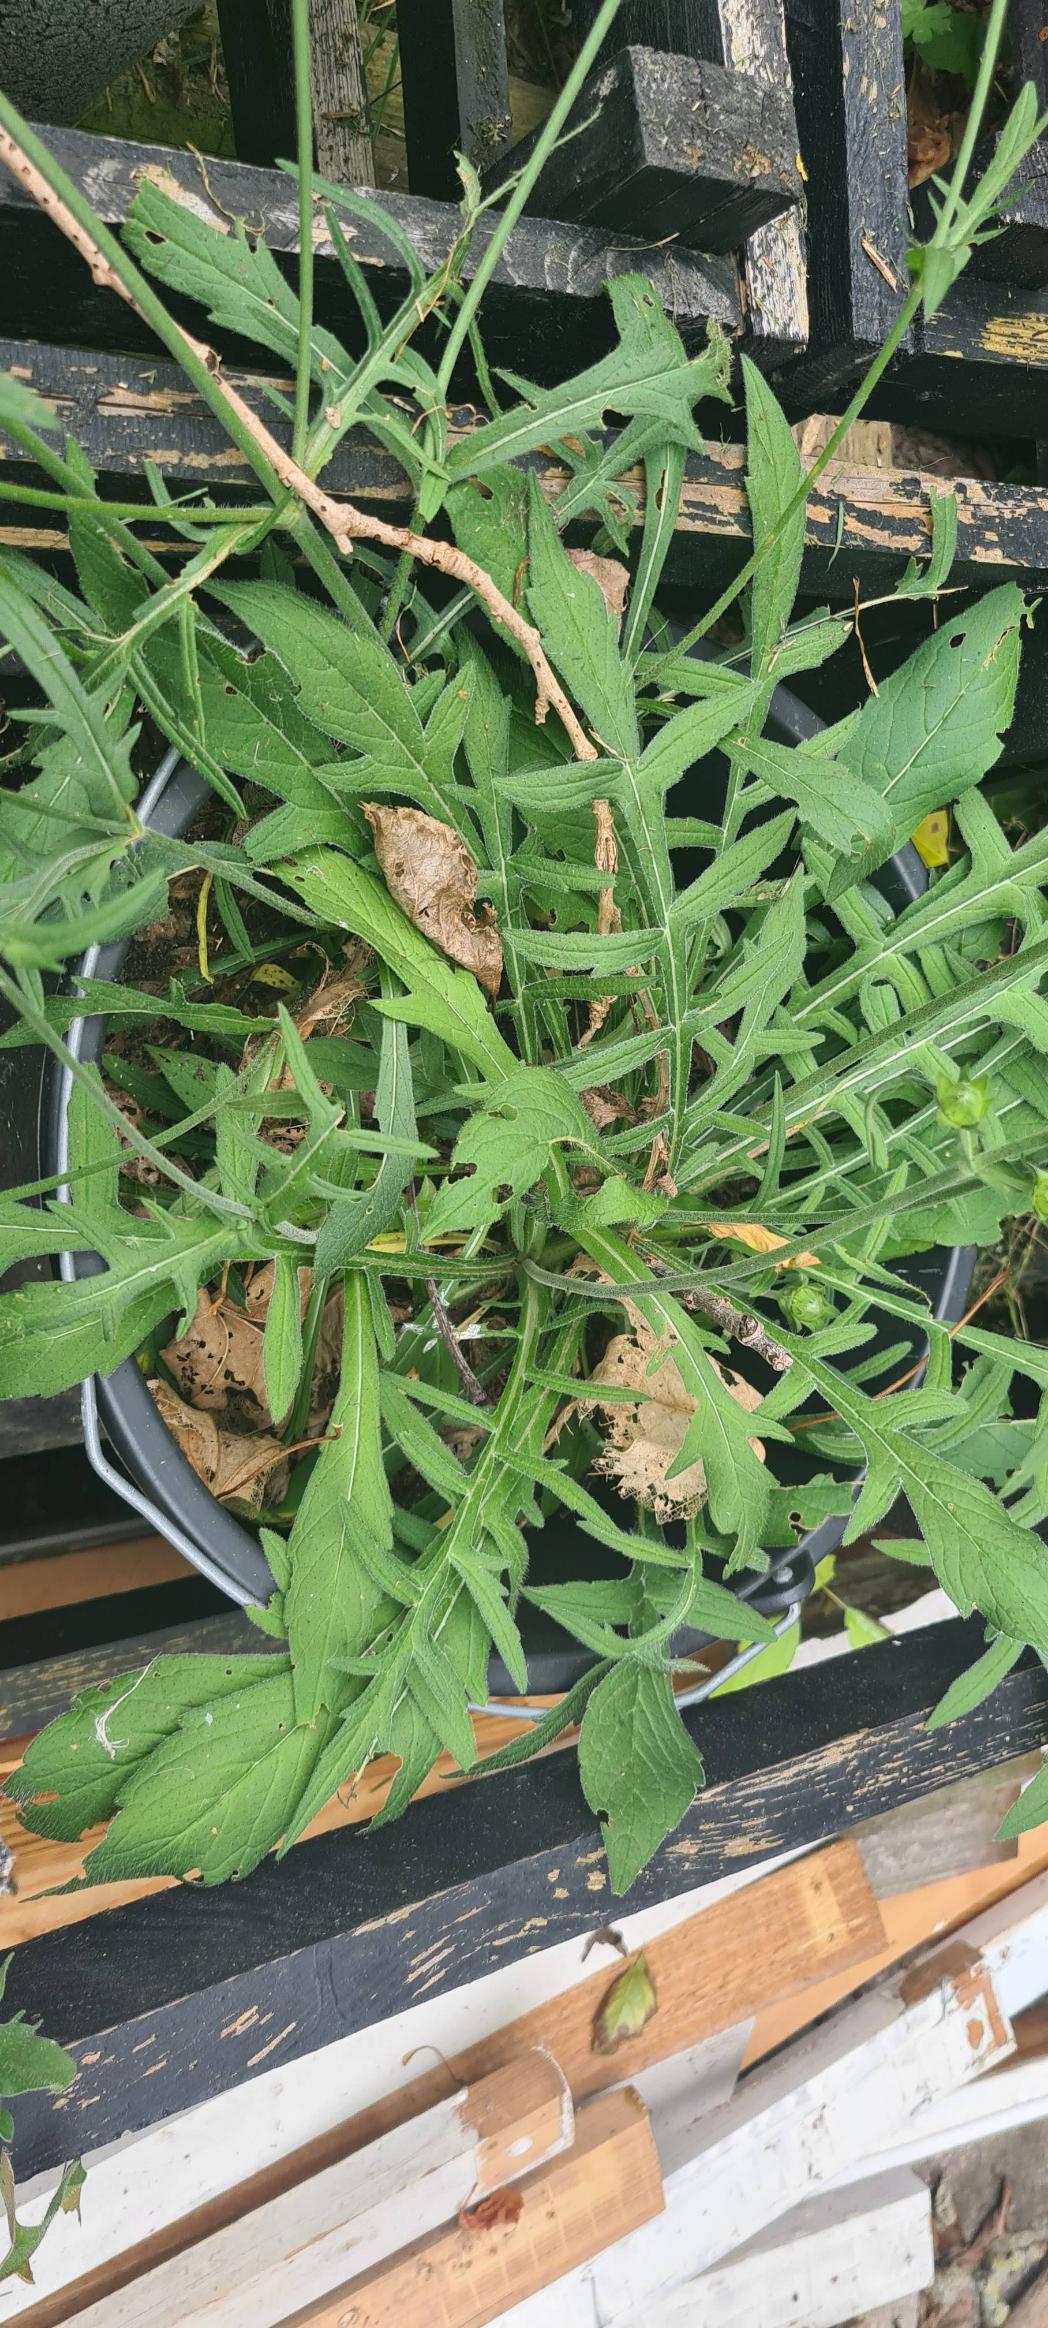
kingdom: Plantae
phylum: Tracheophyta
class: Magnoliopsida
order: Dipsacales
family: Caprifoliaceae
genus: Knautia
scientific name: Knautia arvensis
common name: Blåhat
